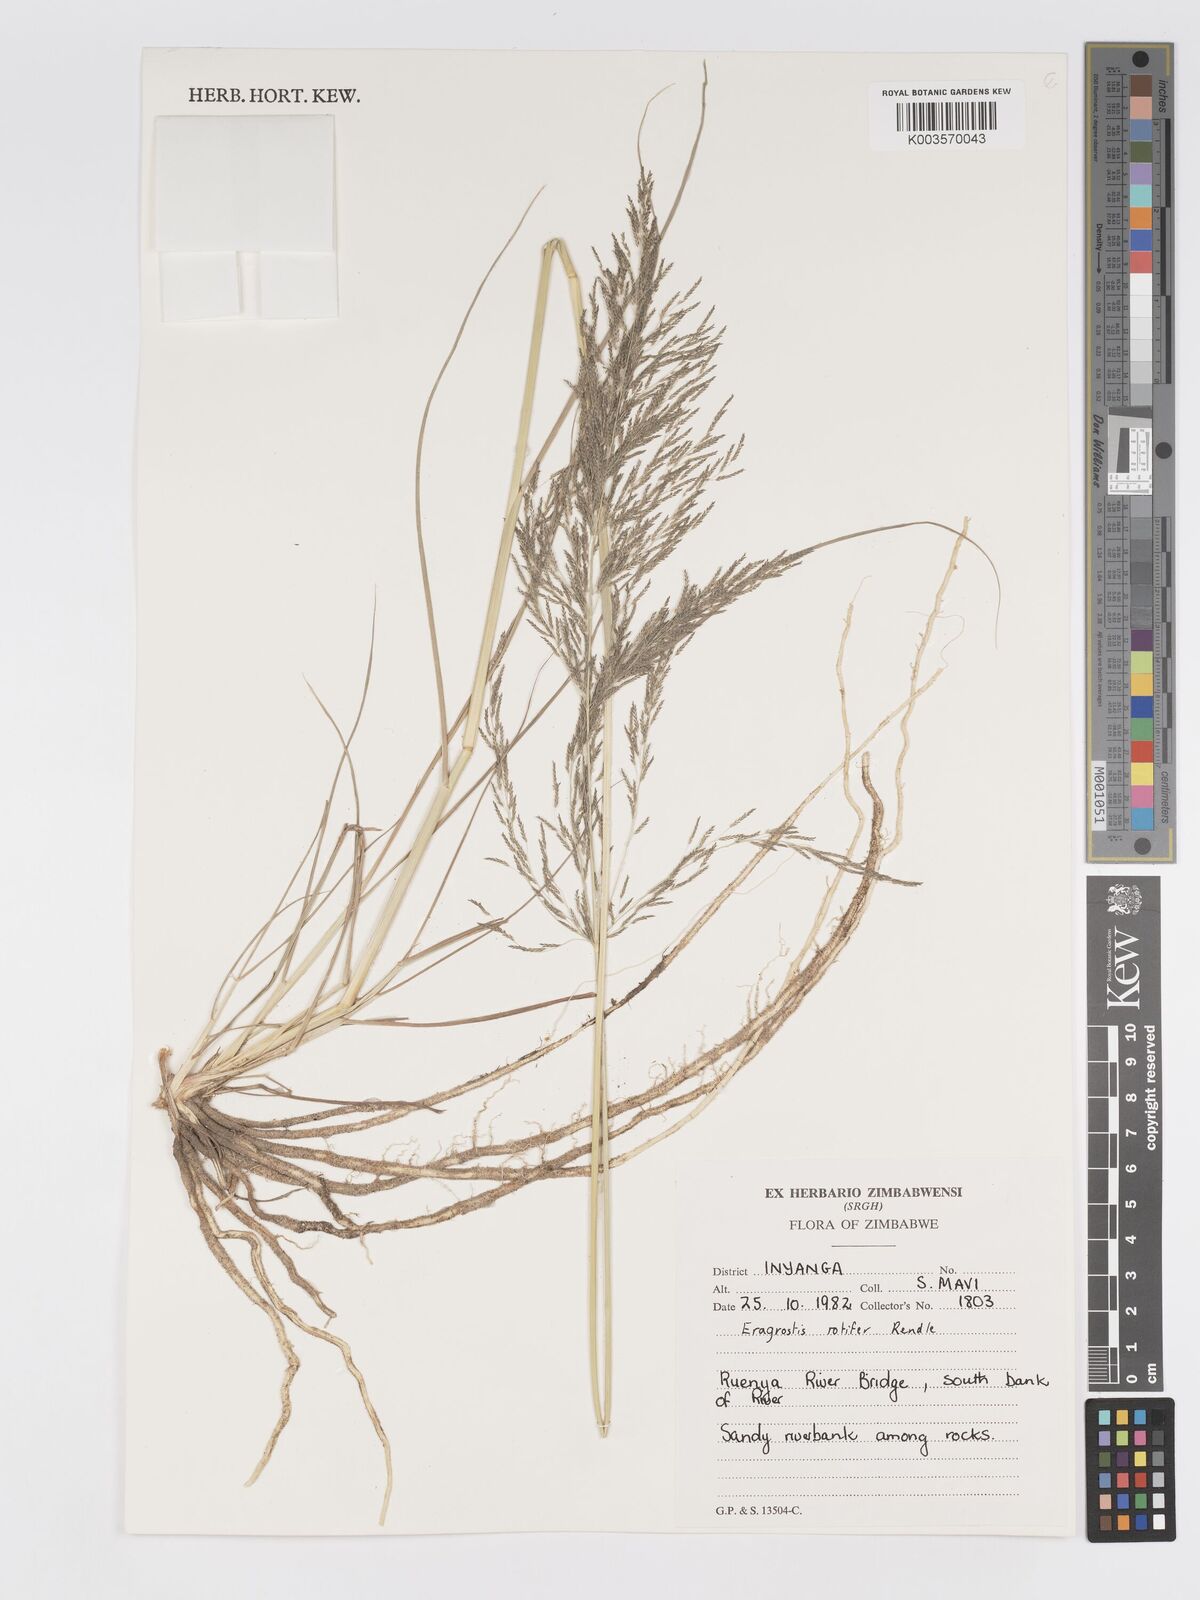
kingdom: Plantae
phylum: Tracheophyta
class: Liliopsida
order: Poales
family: Poaceae
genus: Eragrostis
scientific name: Eragrostis rotifer
